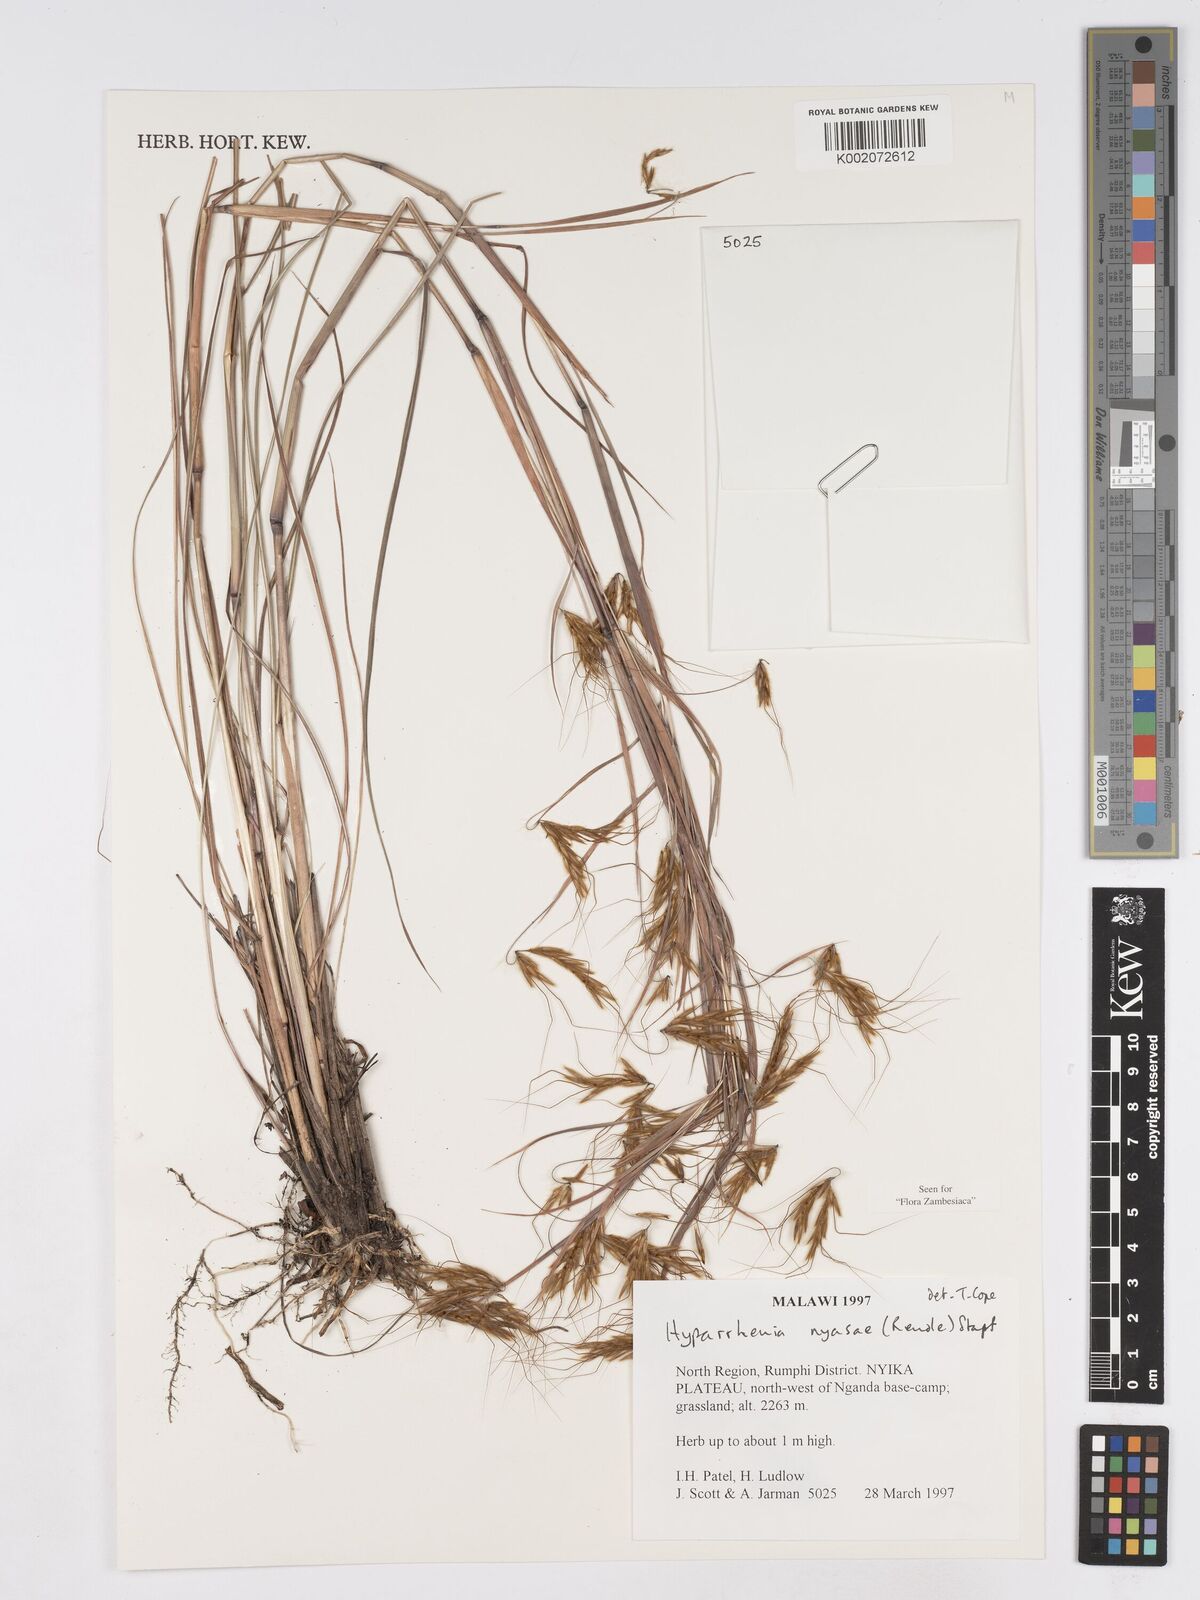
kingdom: Plantae
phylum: Tracheophyta
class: Liliopsida
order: Poales
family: Poaceae
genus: Hyparrhenia
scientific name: Hyparrhenia nyassae
